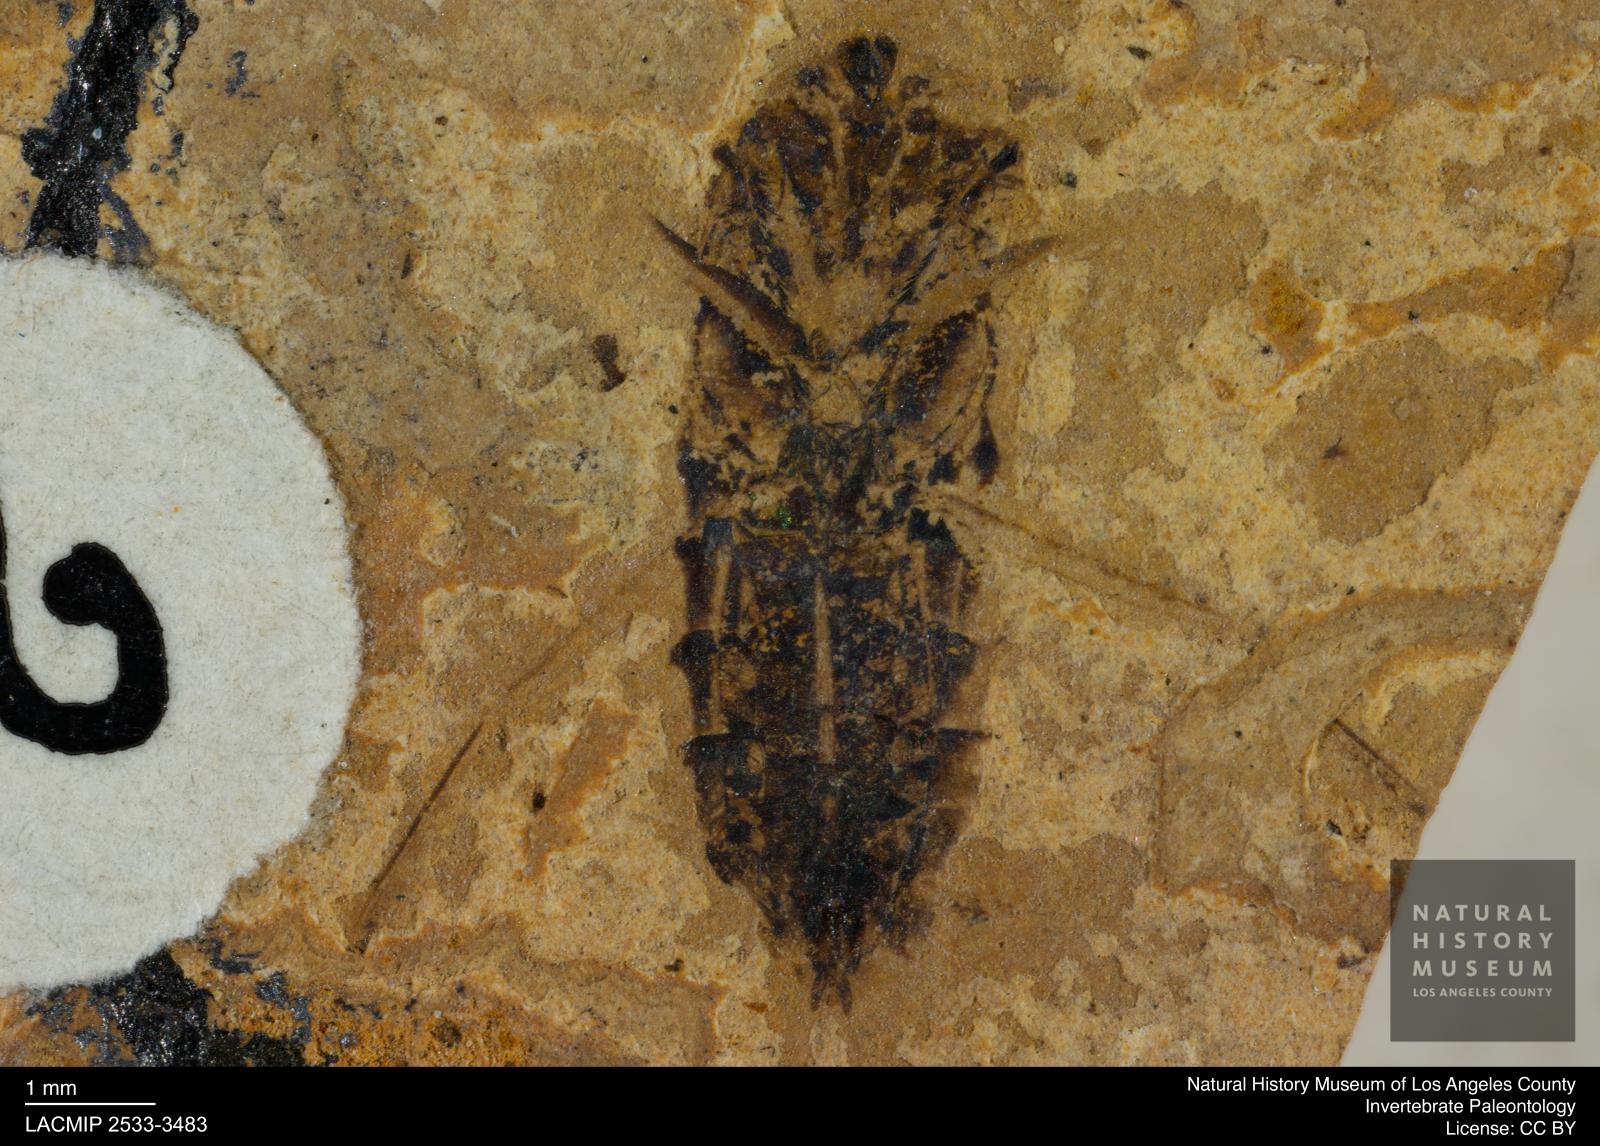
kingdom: Animalia
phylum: Arthropoda
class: Insecta
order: Hemiptera
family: Notonectidae
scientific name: Notonectidae
